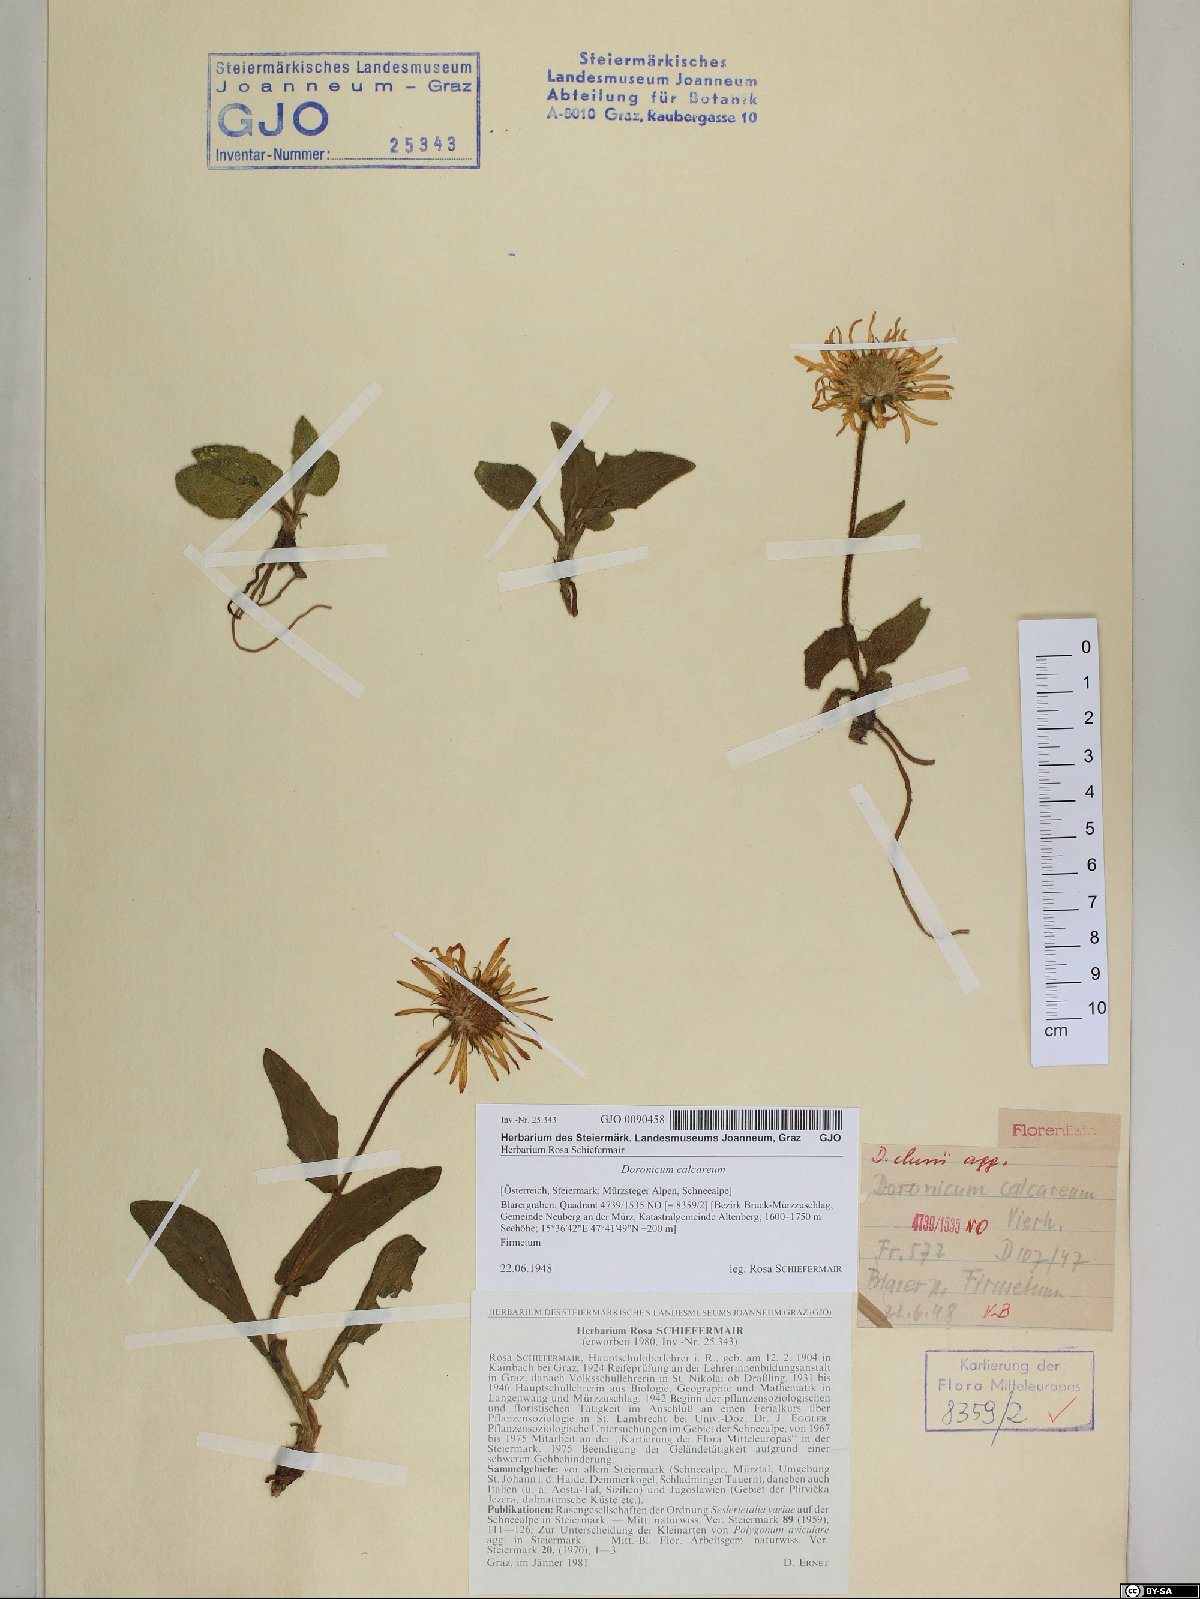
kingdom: Plantae
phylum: Tracheophyta
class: Magnoliopsida
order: Asterales
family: Asteraceae
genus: Doronicum
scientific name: Doronicum glaciale
